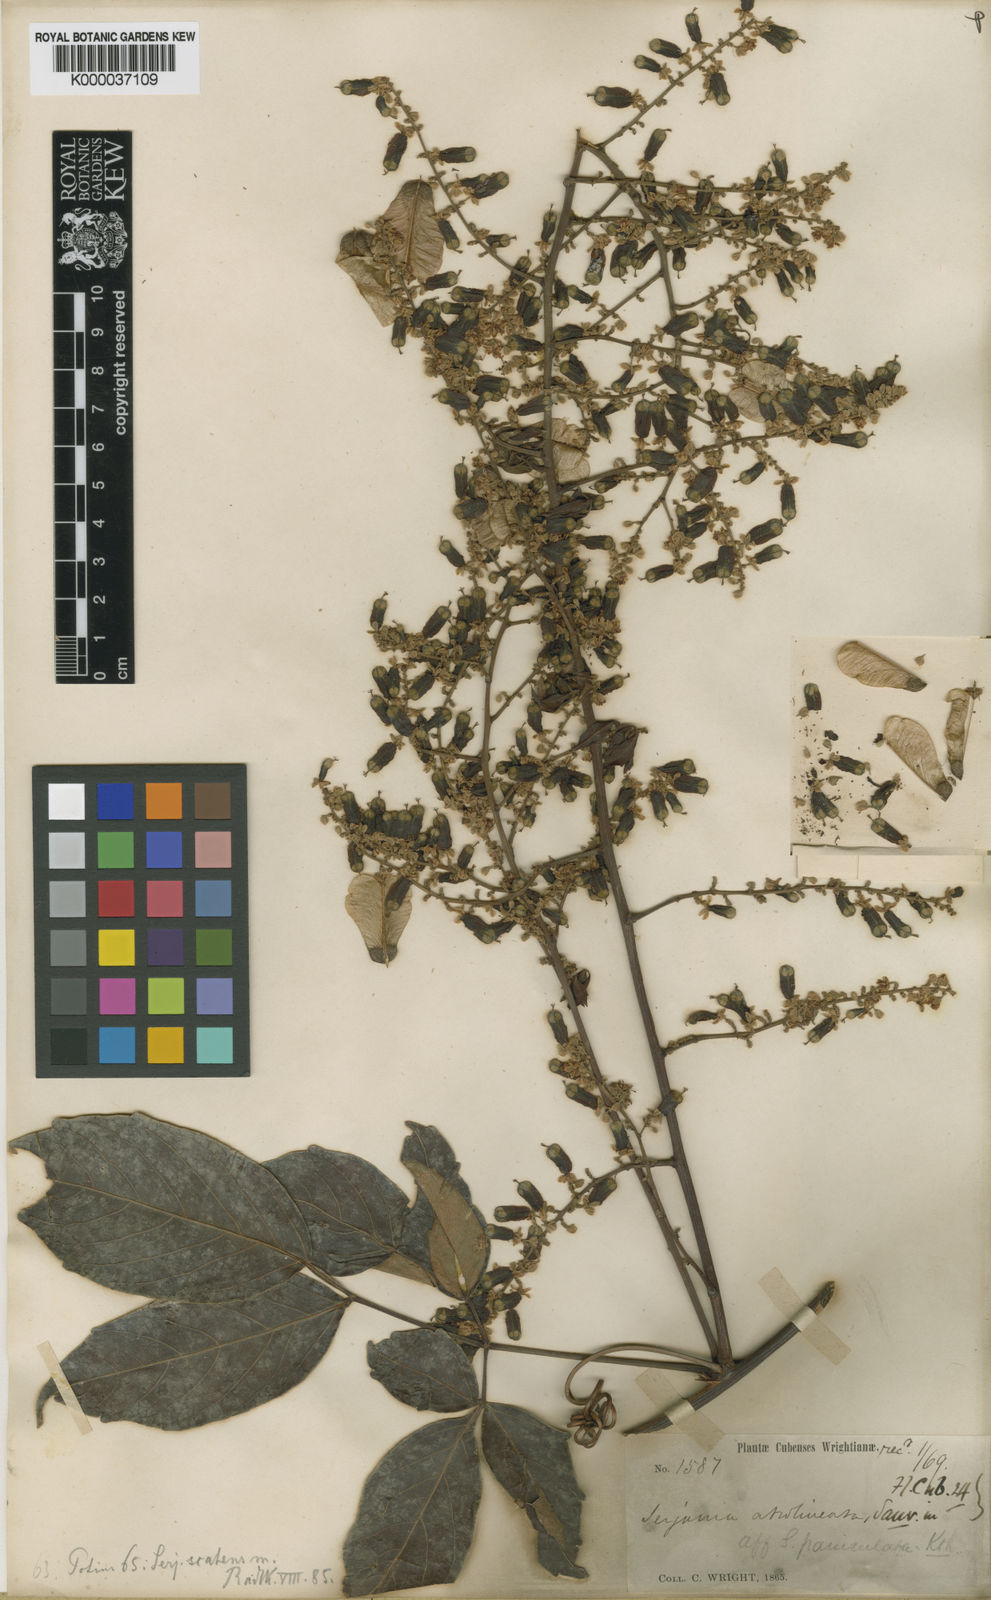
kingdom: Plantae
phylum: Tracheophyta
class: Magnoliopsida
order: Sapindales
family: Sapindaceae
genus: Serjania
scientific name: Serjania atrolineata
